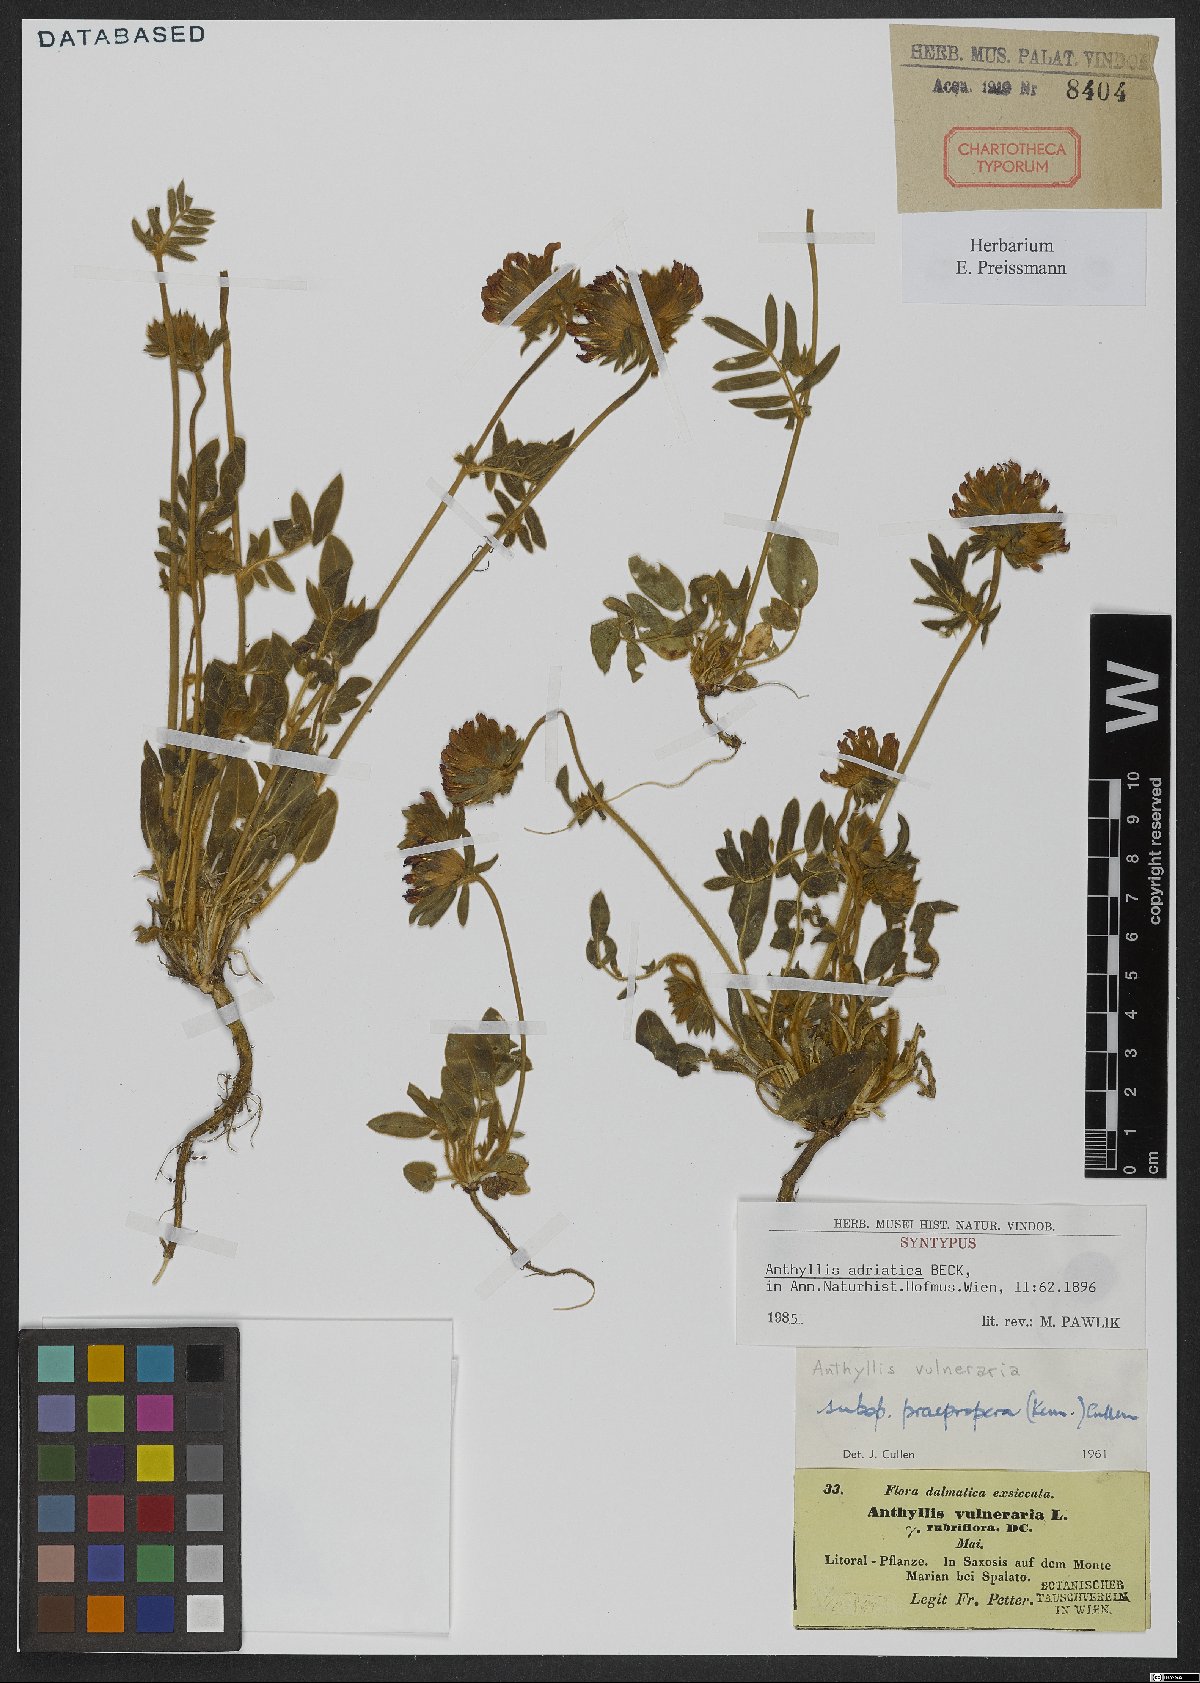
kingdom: Plantae
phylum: Tracheophyta
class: Magnoliopsida
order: Fabales
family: Fabaceae
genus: Anthyllis
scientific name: Anthyllis vulneraria
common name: Kidney vetch
